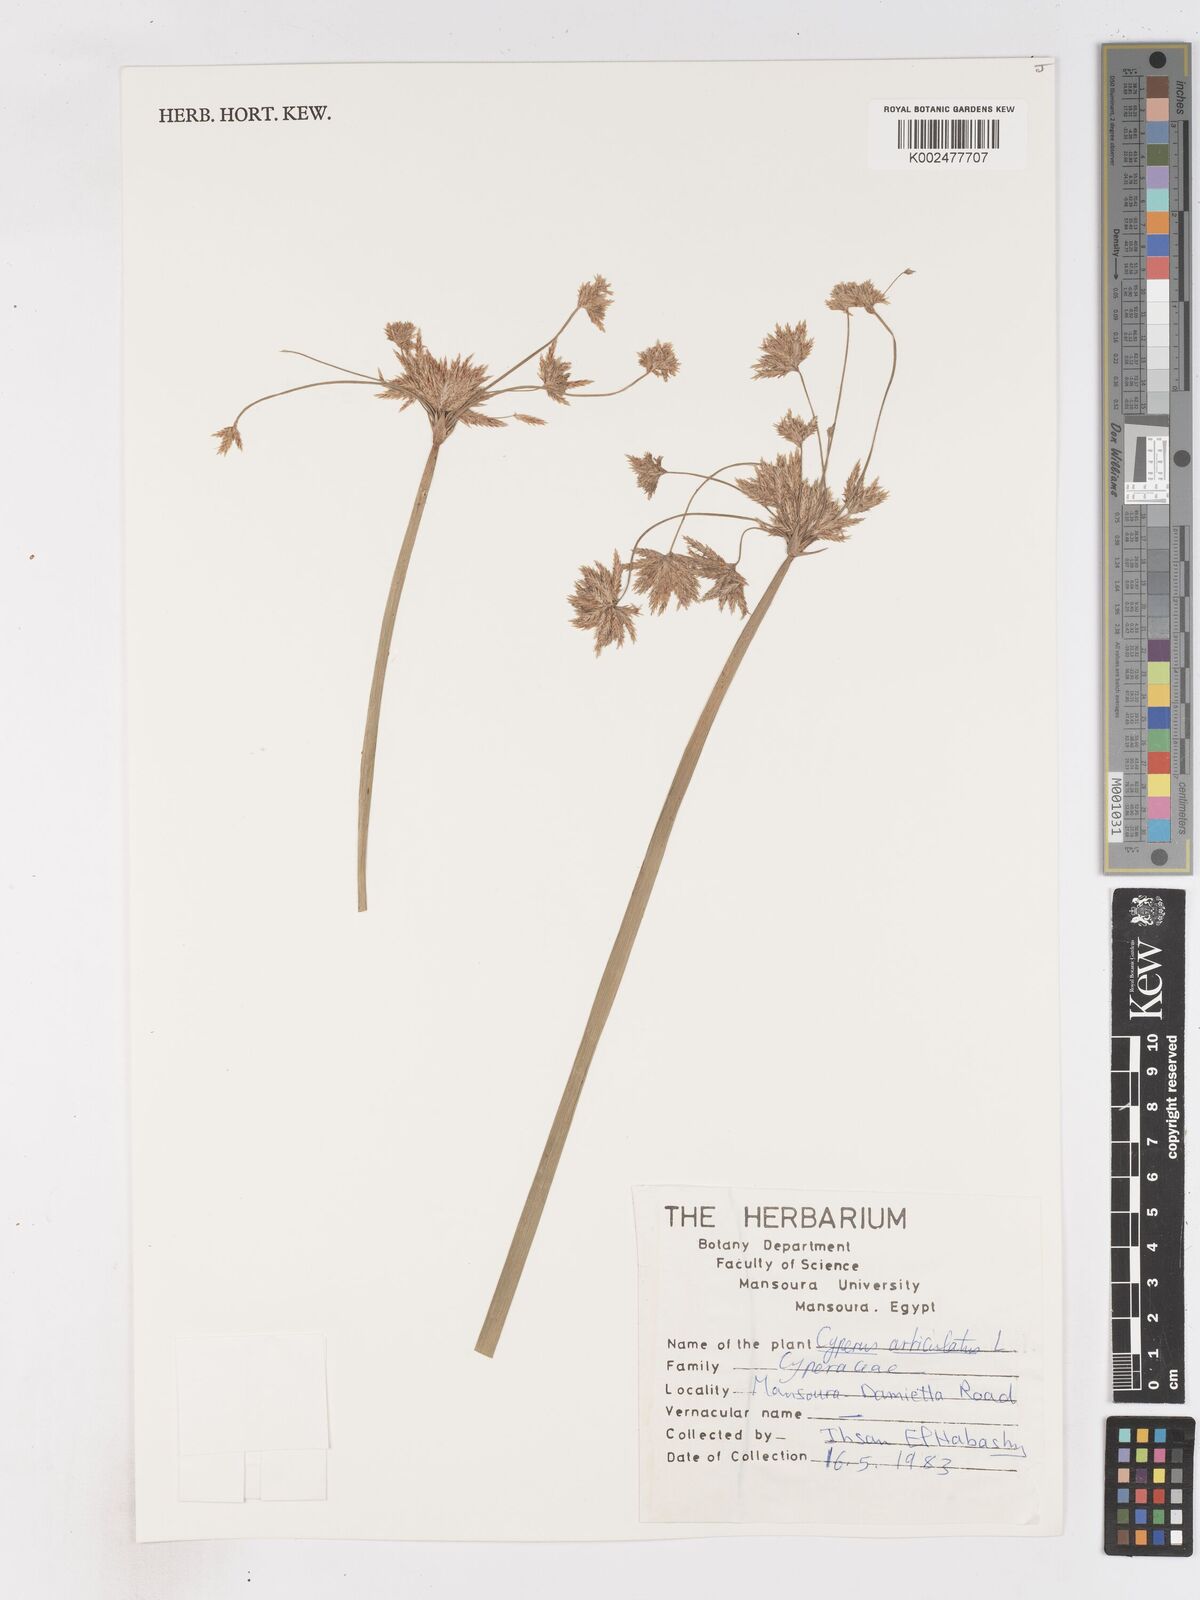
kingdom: Plantae
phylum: Tracheophyta
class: Liliopsida
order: Poales
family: Cyperaceae
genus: Cyperus
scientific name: Cyperus articulatus
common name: Jointed flatsedge
